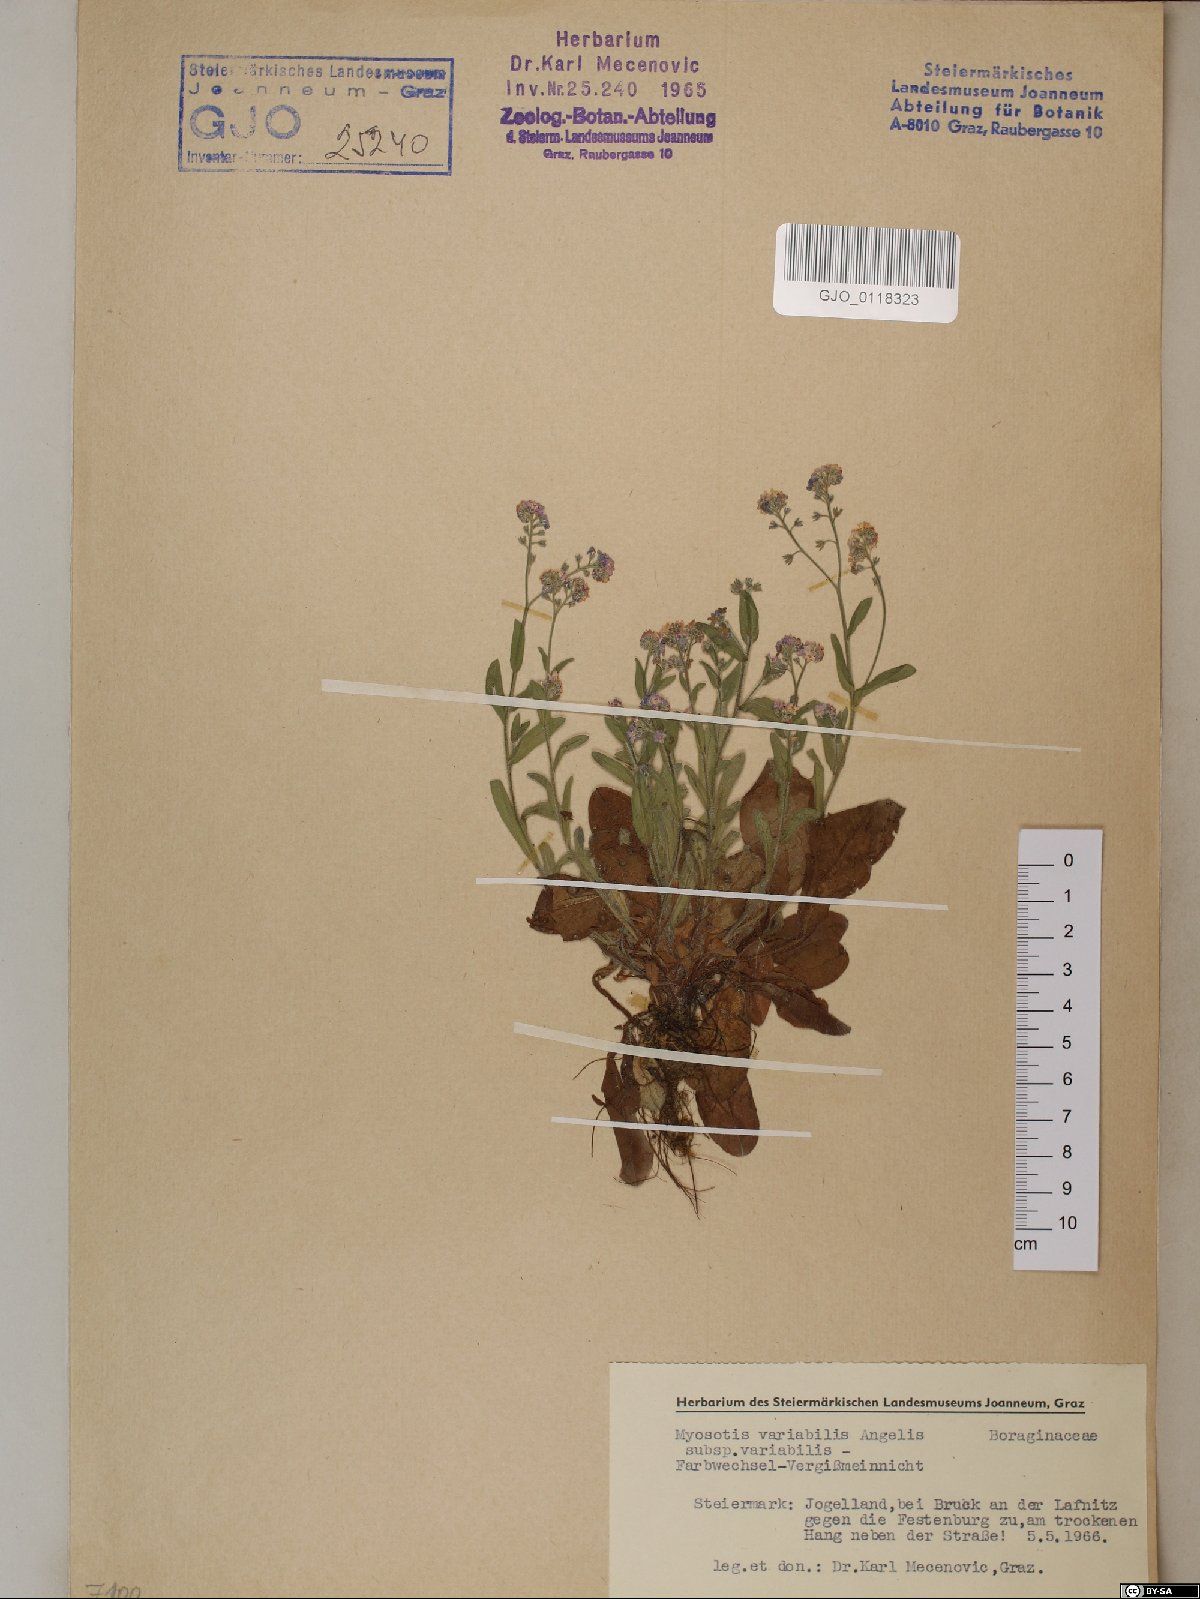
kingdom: Plantae
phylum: Tracheophyta
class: Magnoliopsida
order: Boraginales
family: Boraginaceae
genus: Myosotis
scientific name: Myosotis decumbens
